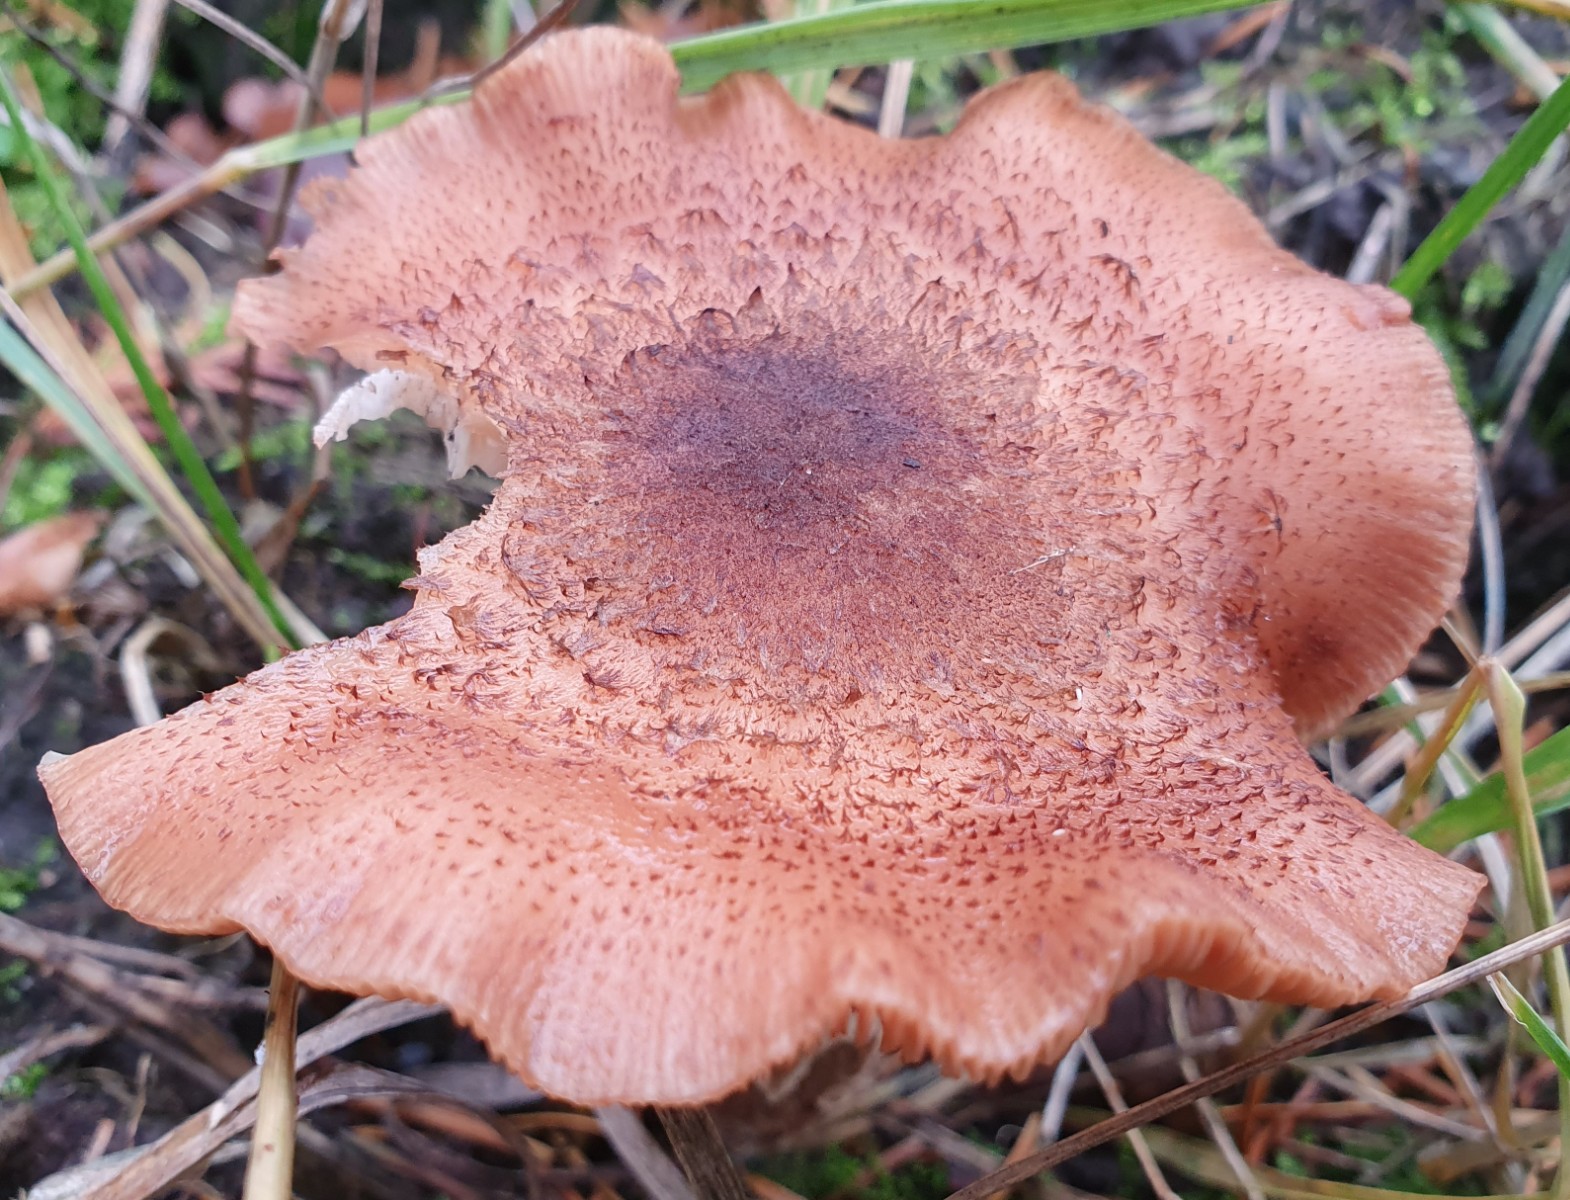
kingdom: Fungi
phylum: Basidiomycota
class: Agaricomycetes
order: Agaricales
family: Physalacriaceae
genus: Armillaria
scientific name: Armillaria ostoyae
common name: mørk honningsvamp
